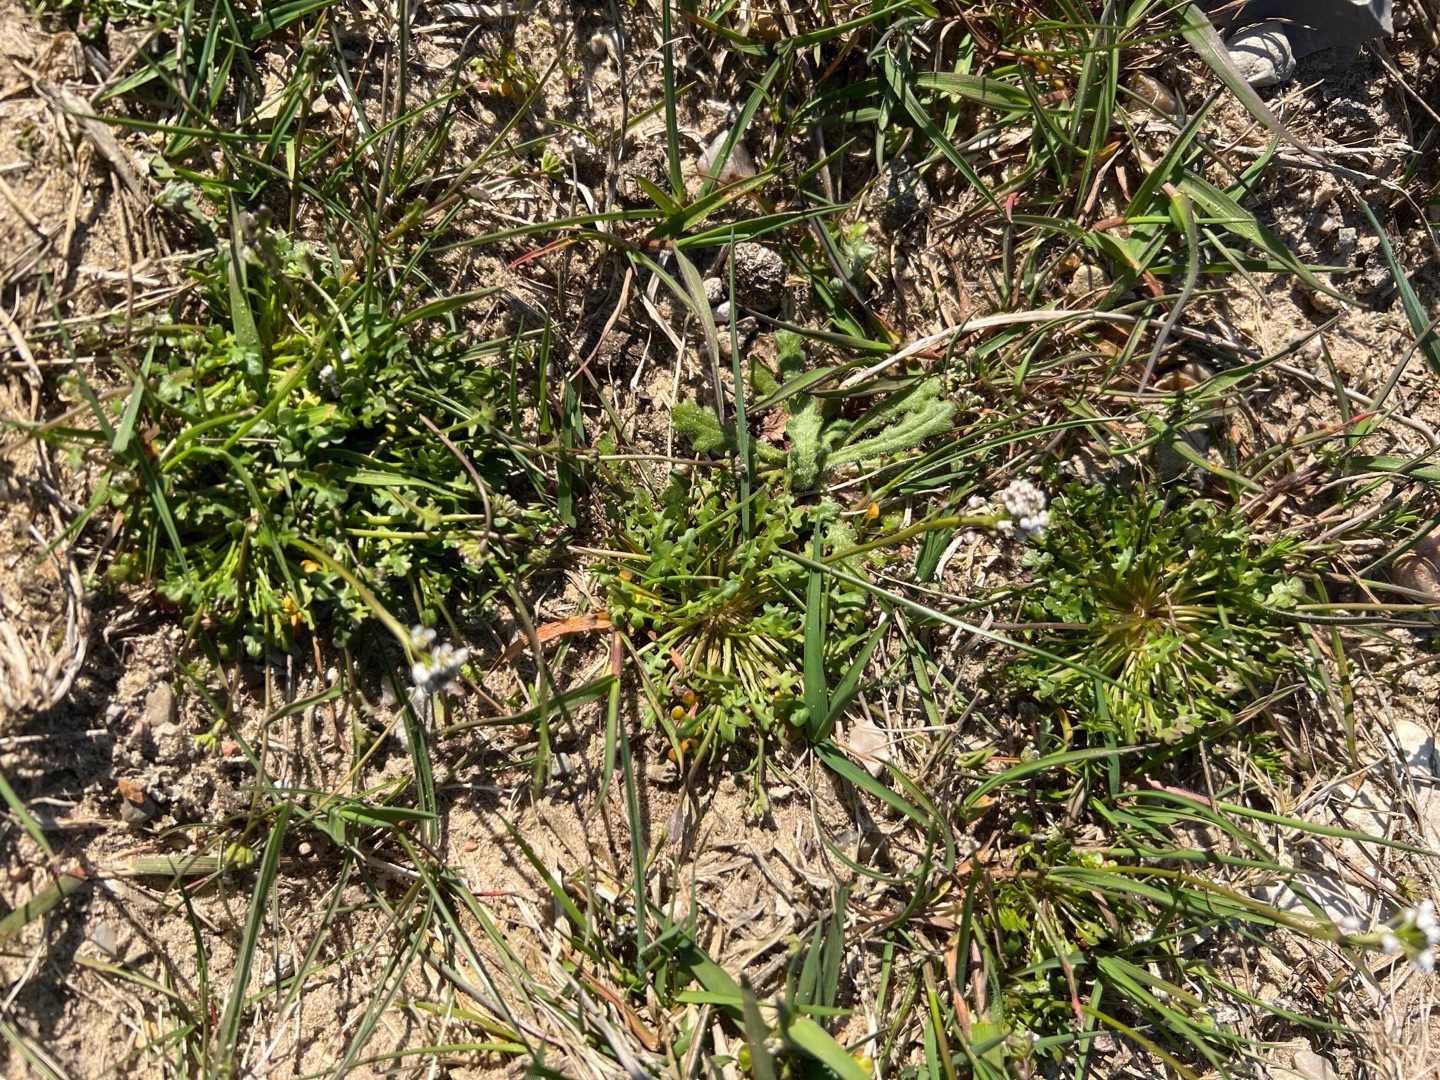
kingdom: Plantae
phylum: Tracheophyta
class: Magnoliopsida
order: Brassicales
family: Brassicaceae
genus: Teesdalia
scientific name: Teesdalia nudicaulis
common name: Flipkrave
